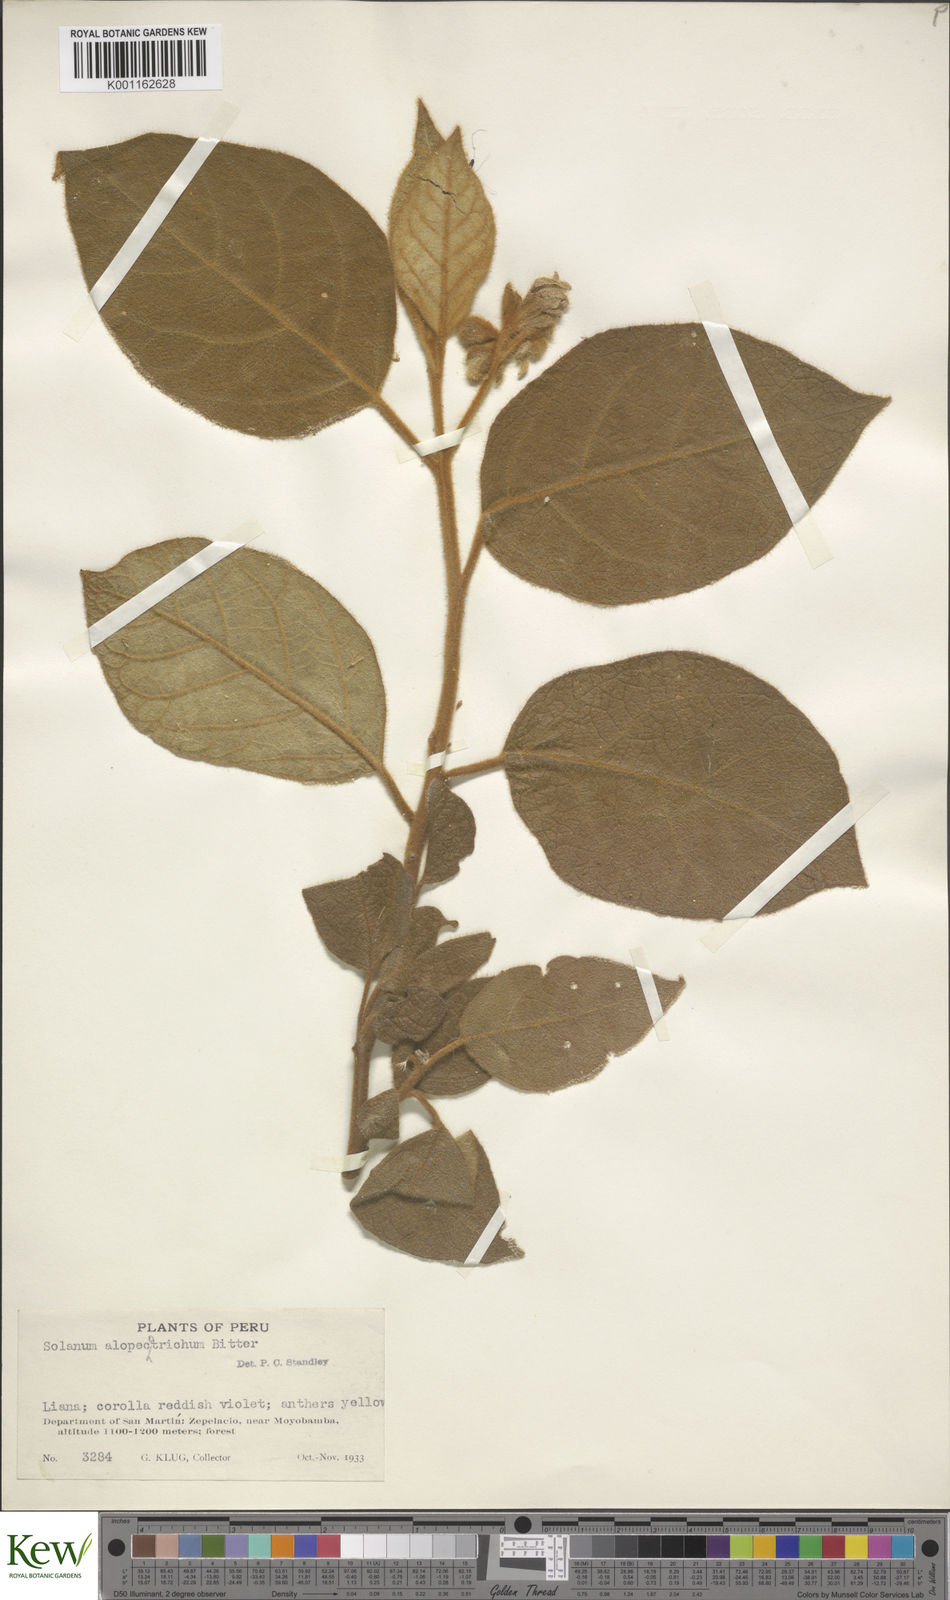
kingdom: Plantae
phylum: Tracheophyta
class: Magnoliopsida
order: Solanales
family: Solanaceae
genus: Solanum
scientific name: Solanum
